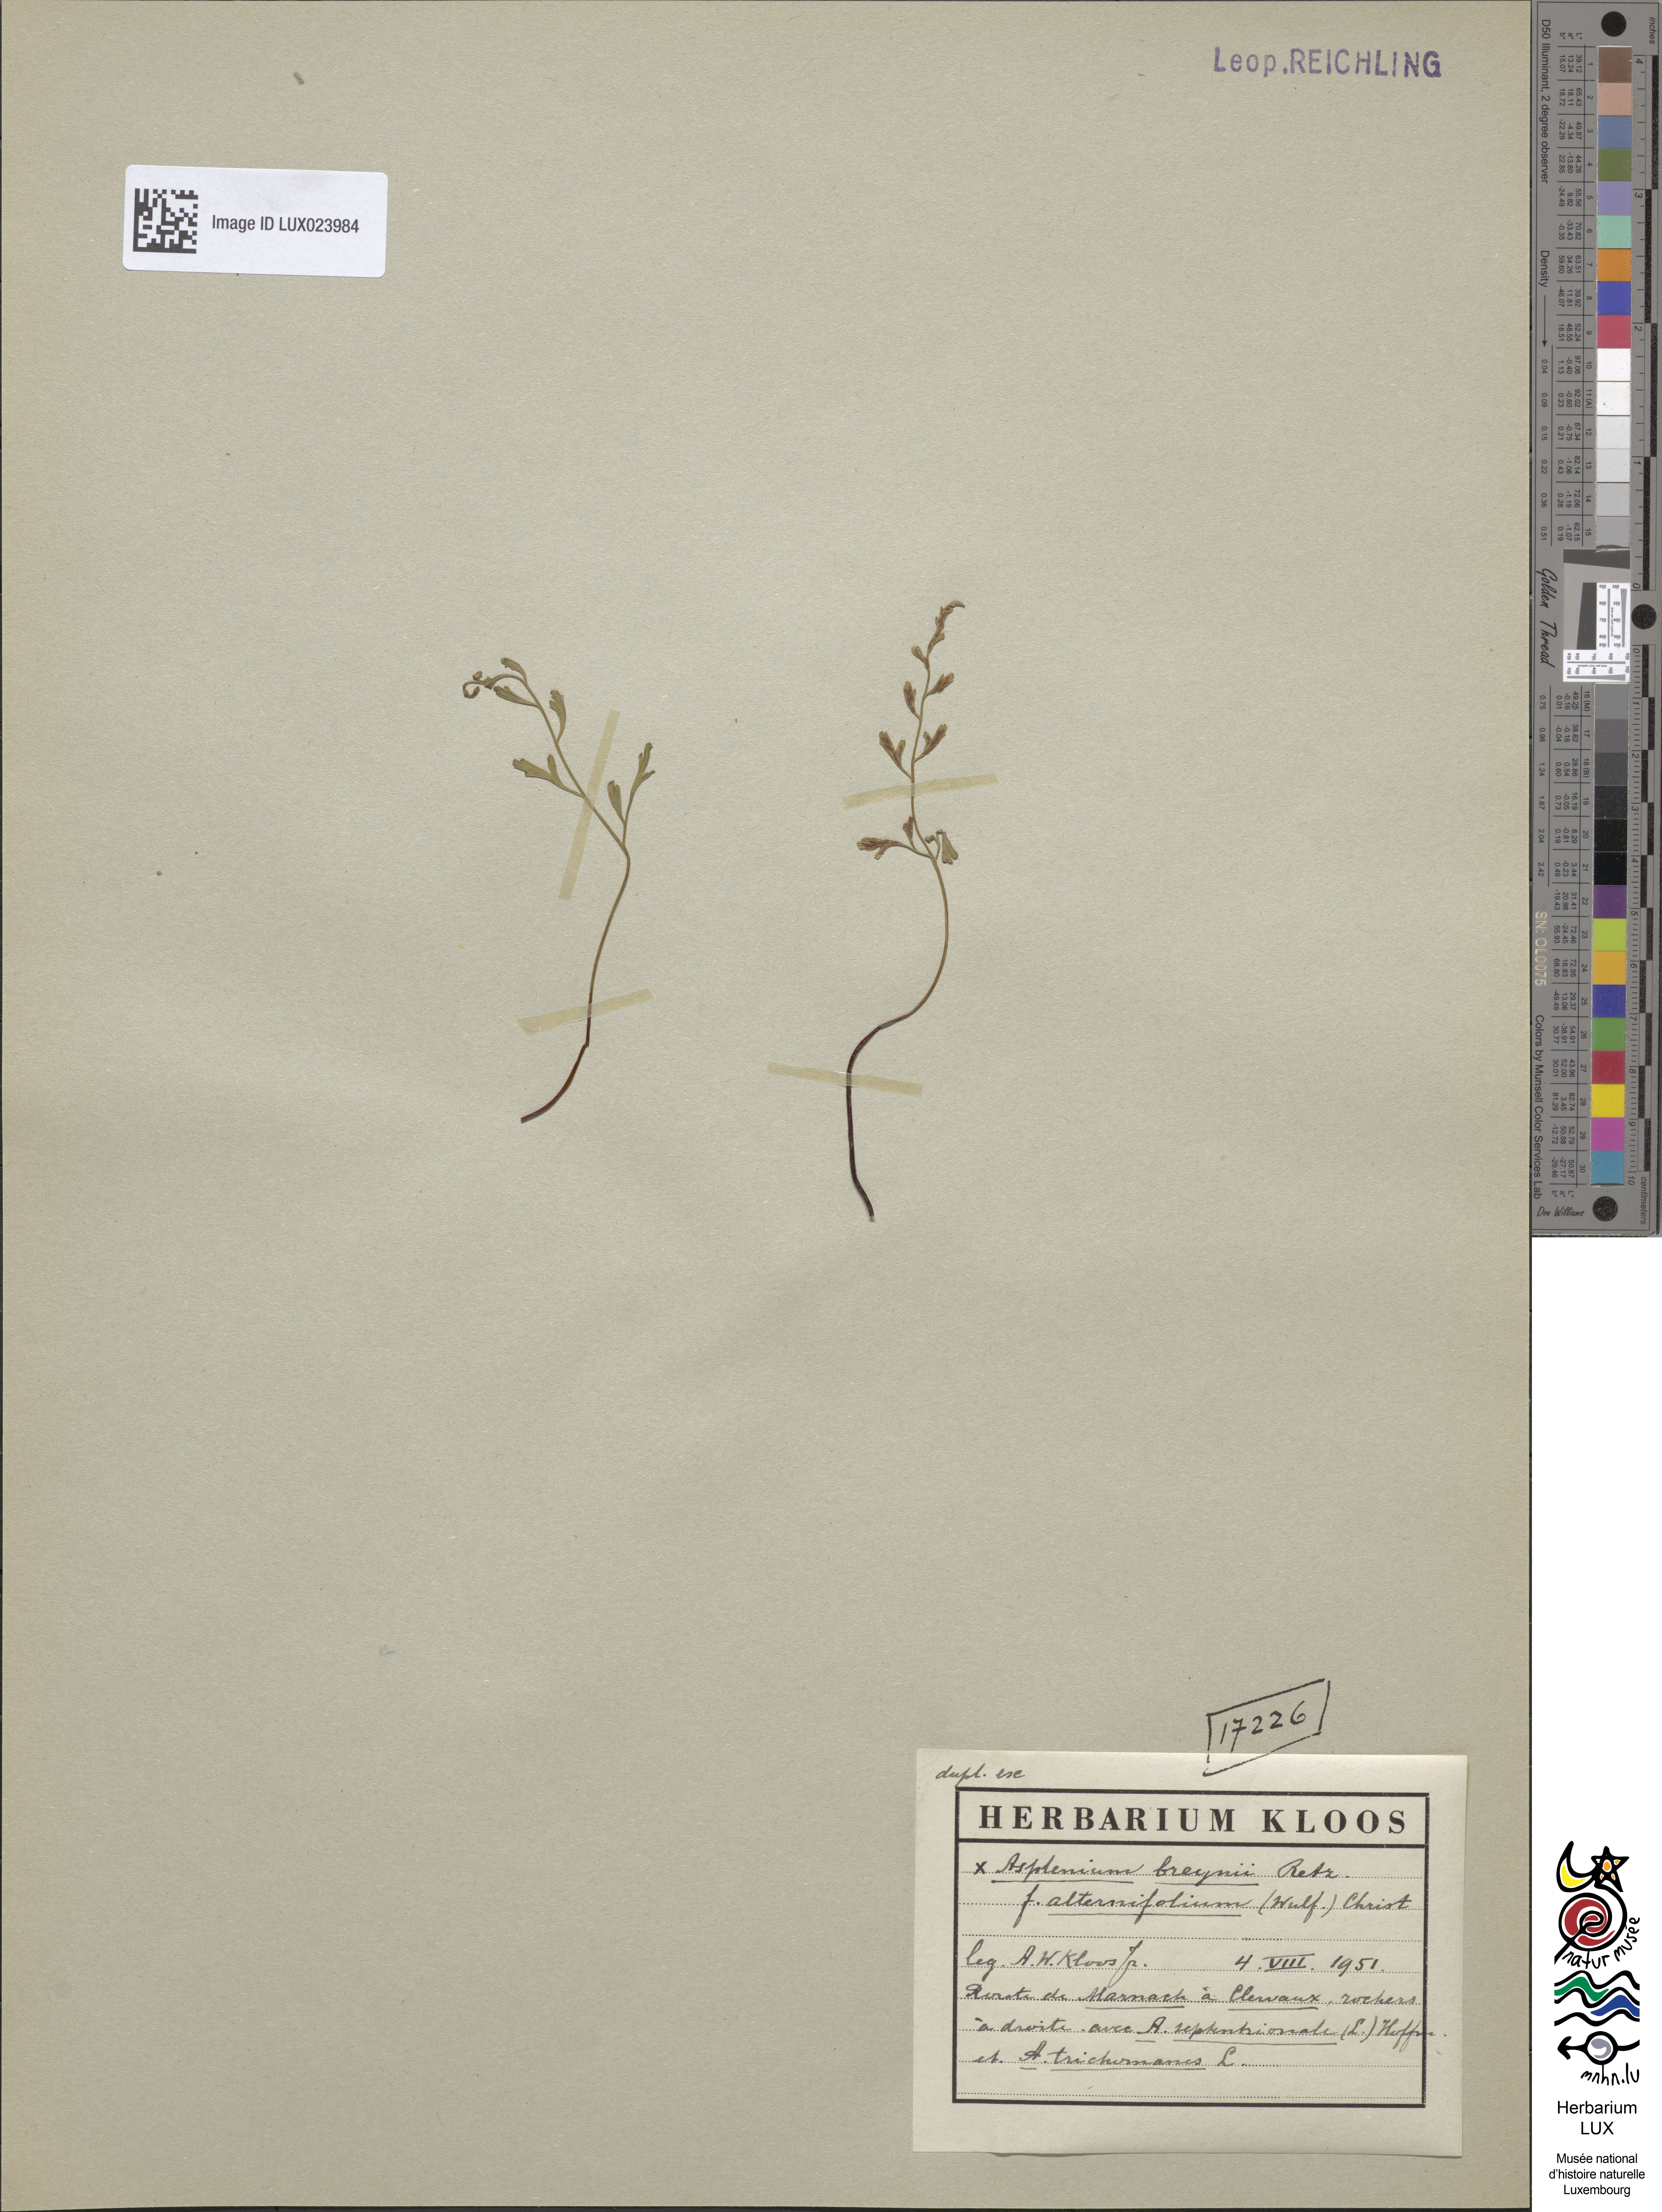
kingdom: Plantae
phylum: Tracheophyta
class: Polypodiopsida
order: Polypodiales
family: Aspleniaceae
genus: Asplenium
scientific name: Asplenium alternifolium
